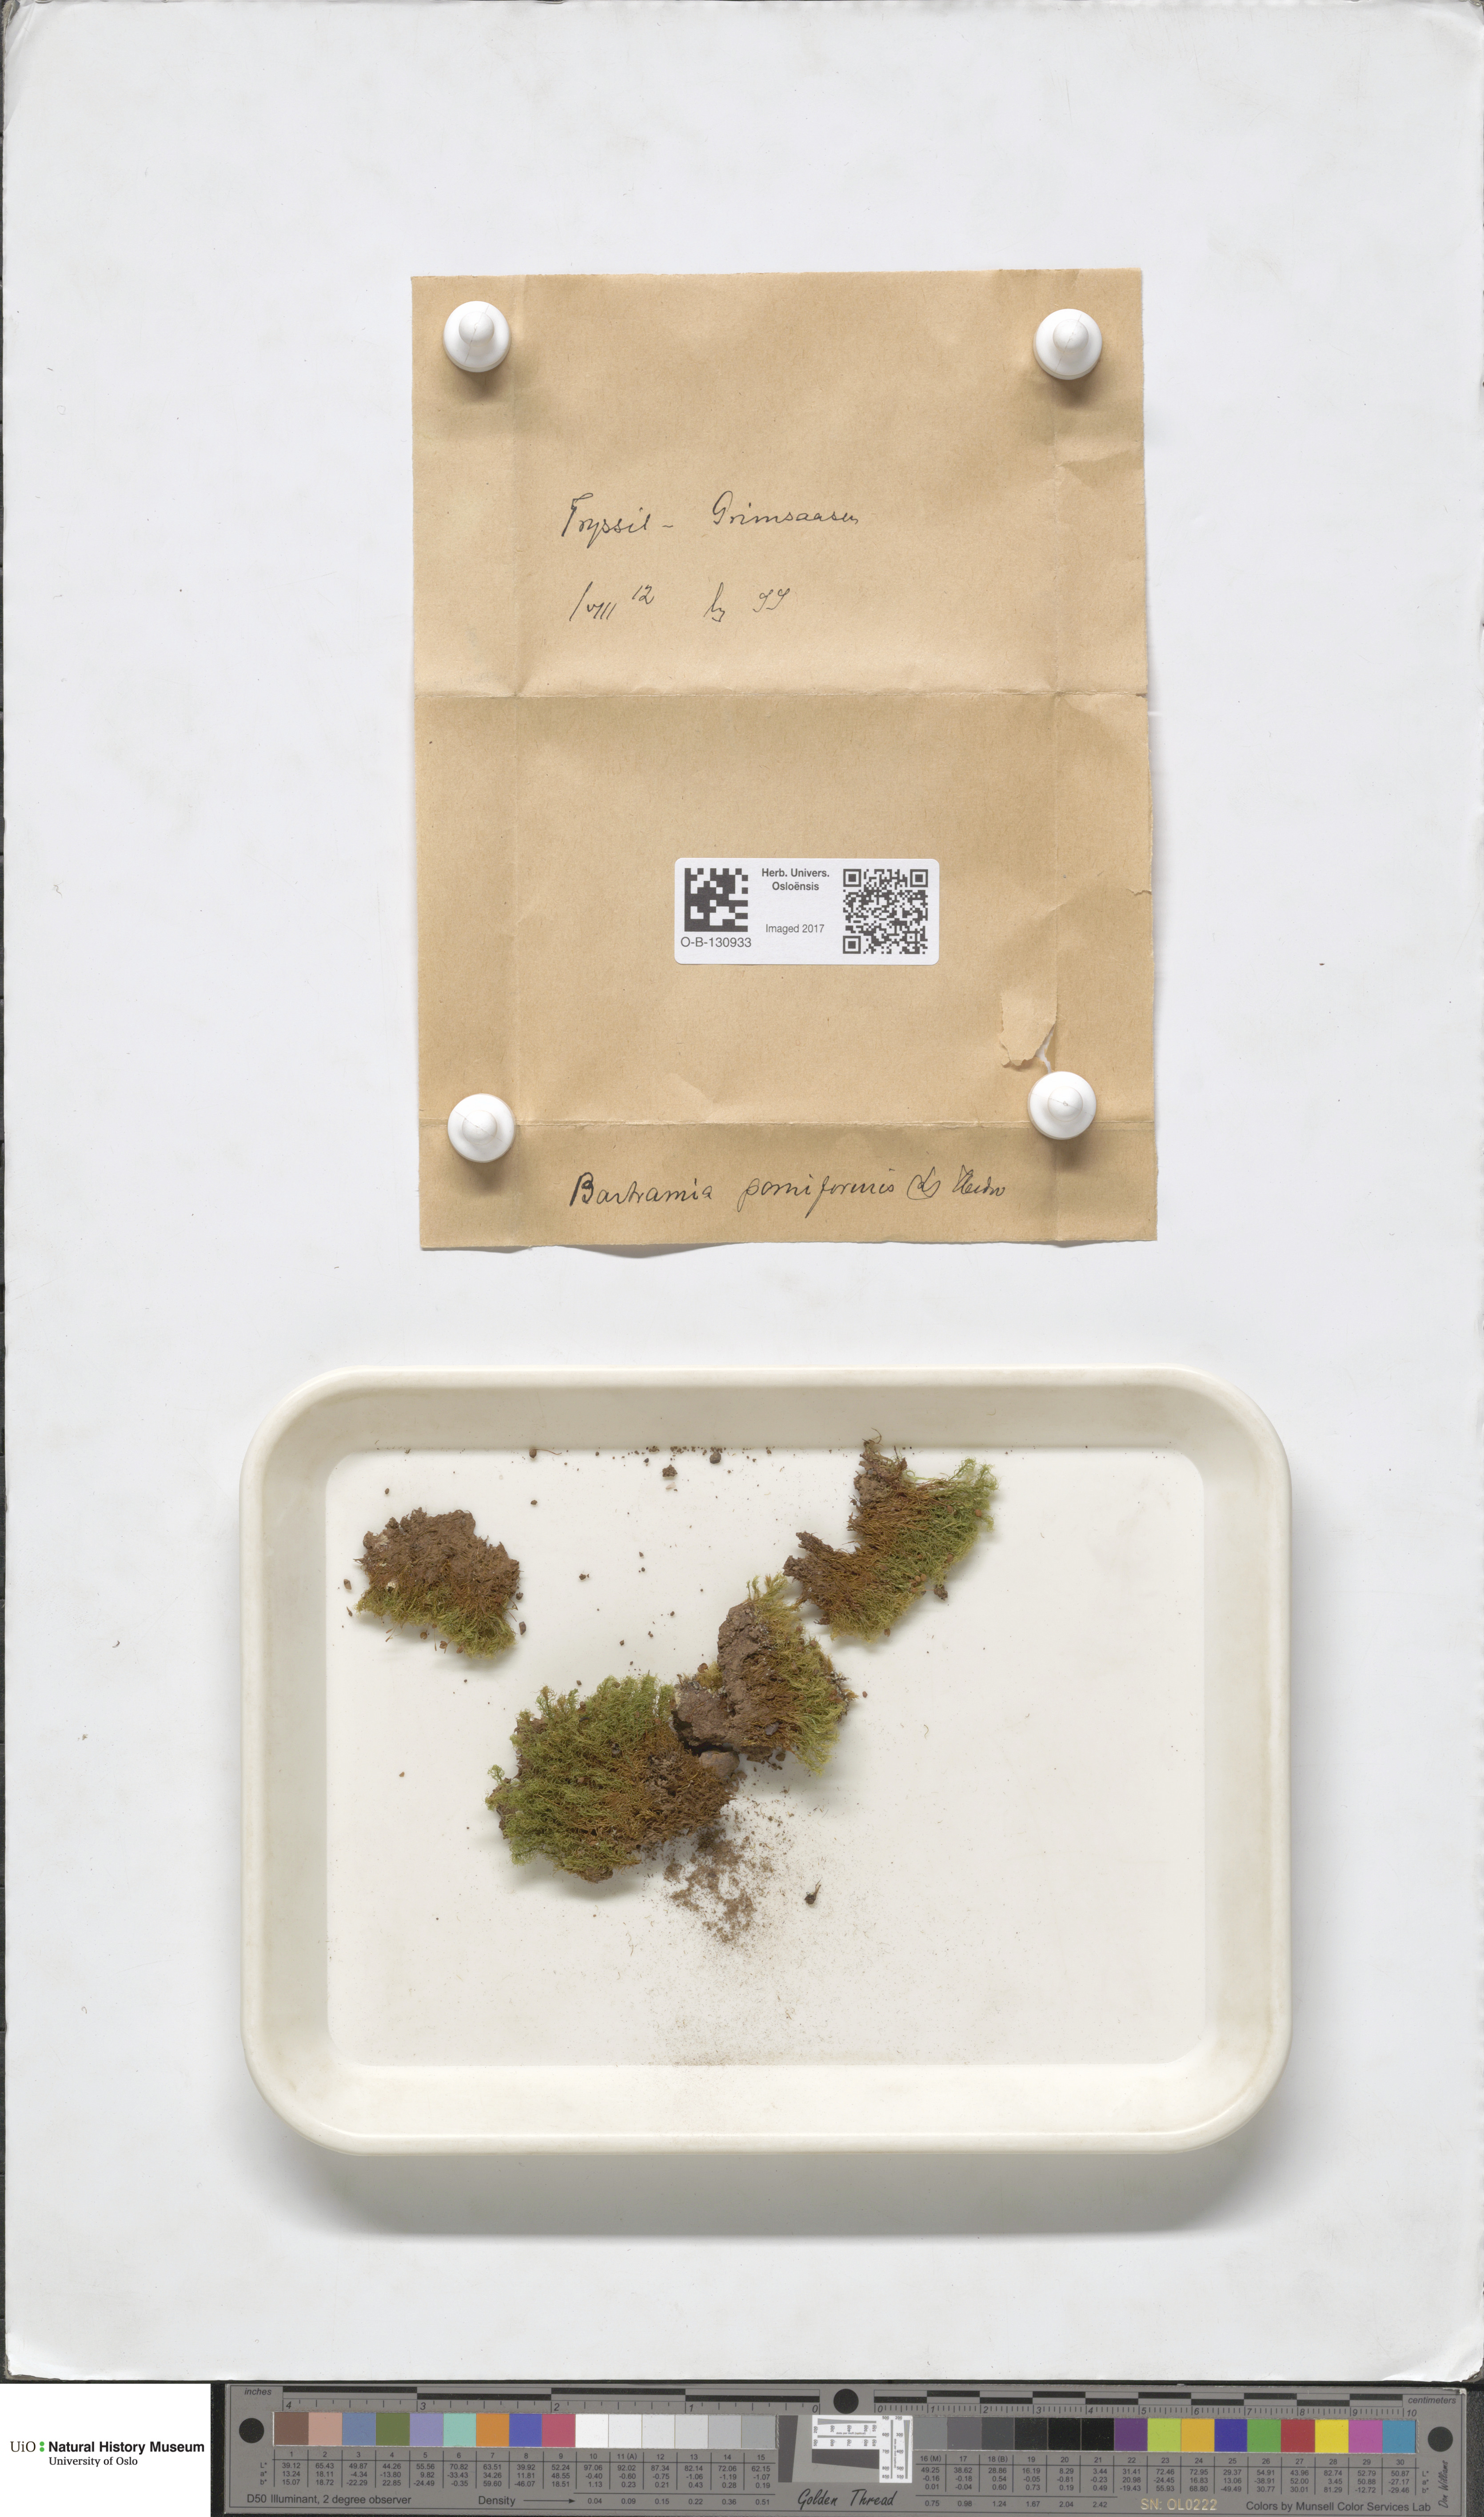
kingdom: Plantae
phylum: Bryophyta
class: Bryopsida
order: Bartramiales
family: Bartramiaceae
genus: Bartramia
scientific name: Bartramia pomiformis
